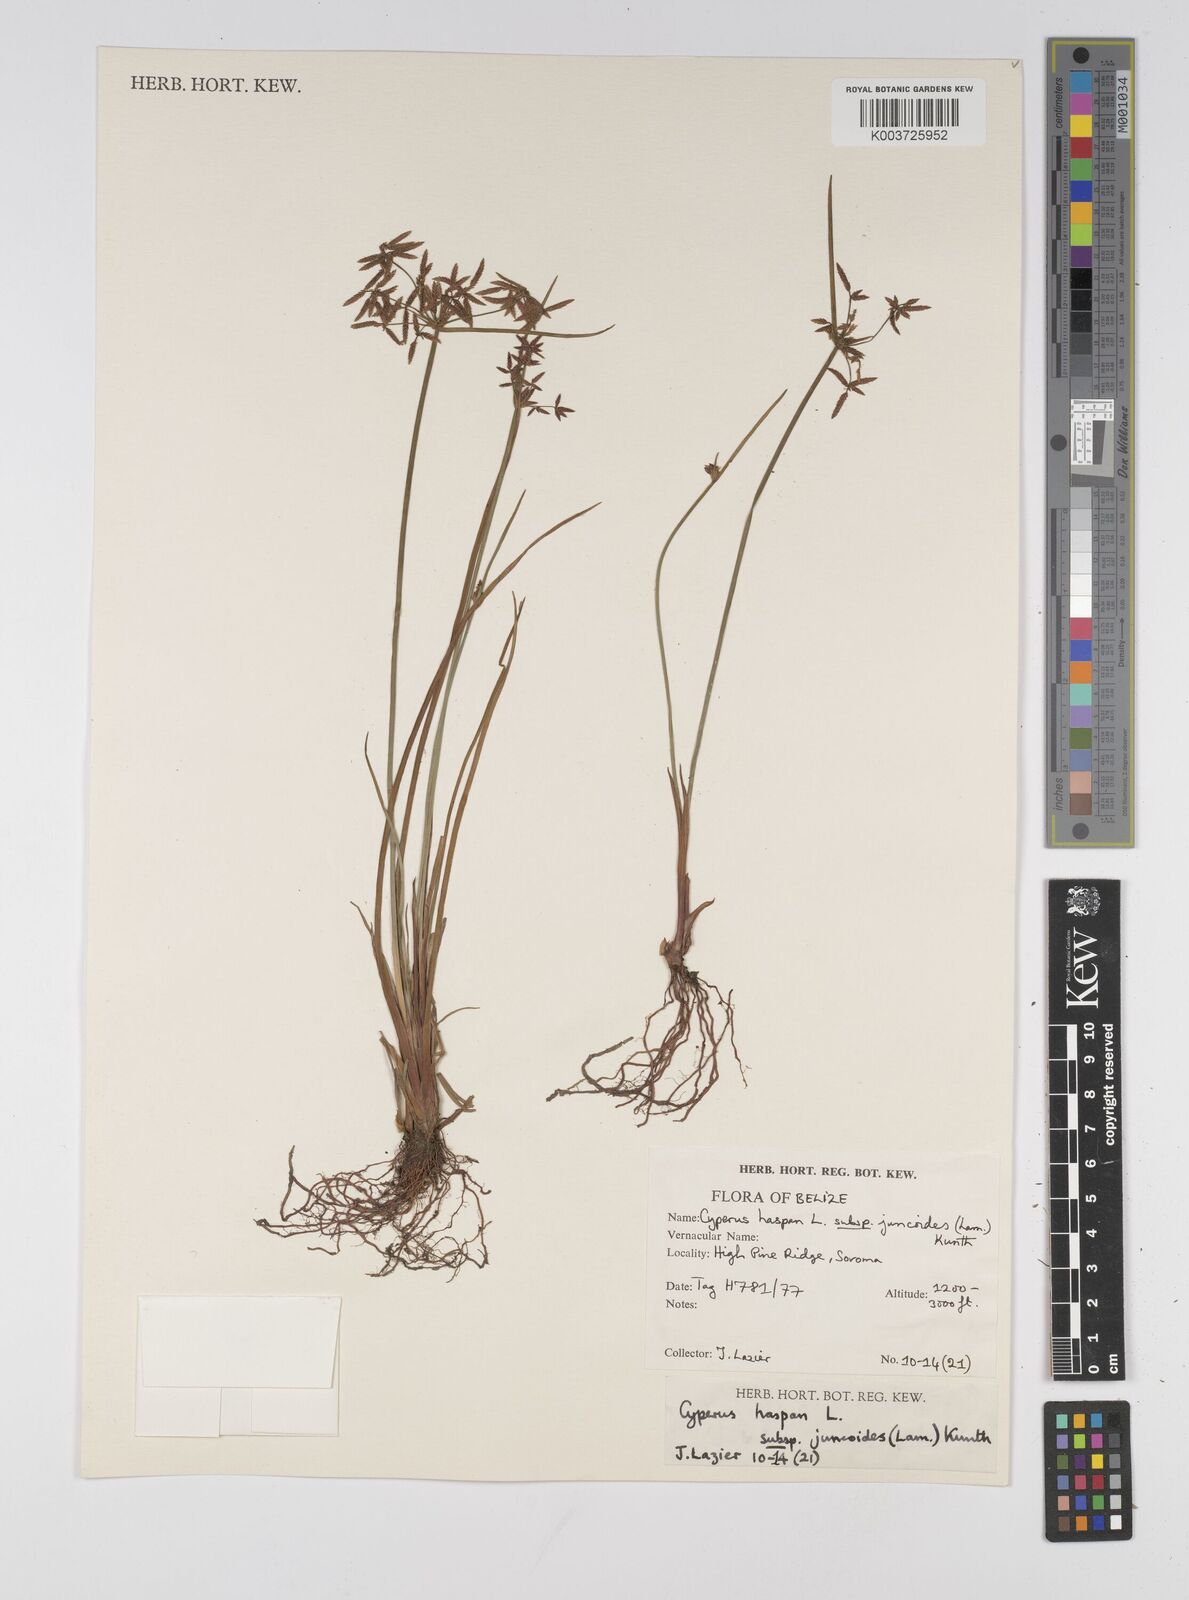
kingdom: Plantae
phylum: Tracheophyta
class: Liliopsida
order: Poales
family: Cyperaceae
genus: Cyperus
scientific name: Cyperus haspan
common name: Haspan flatsedge
